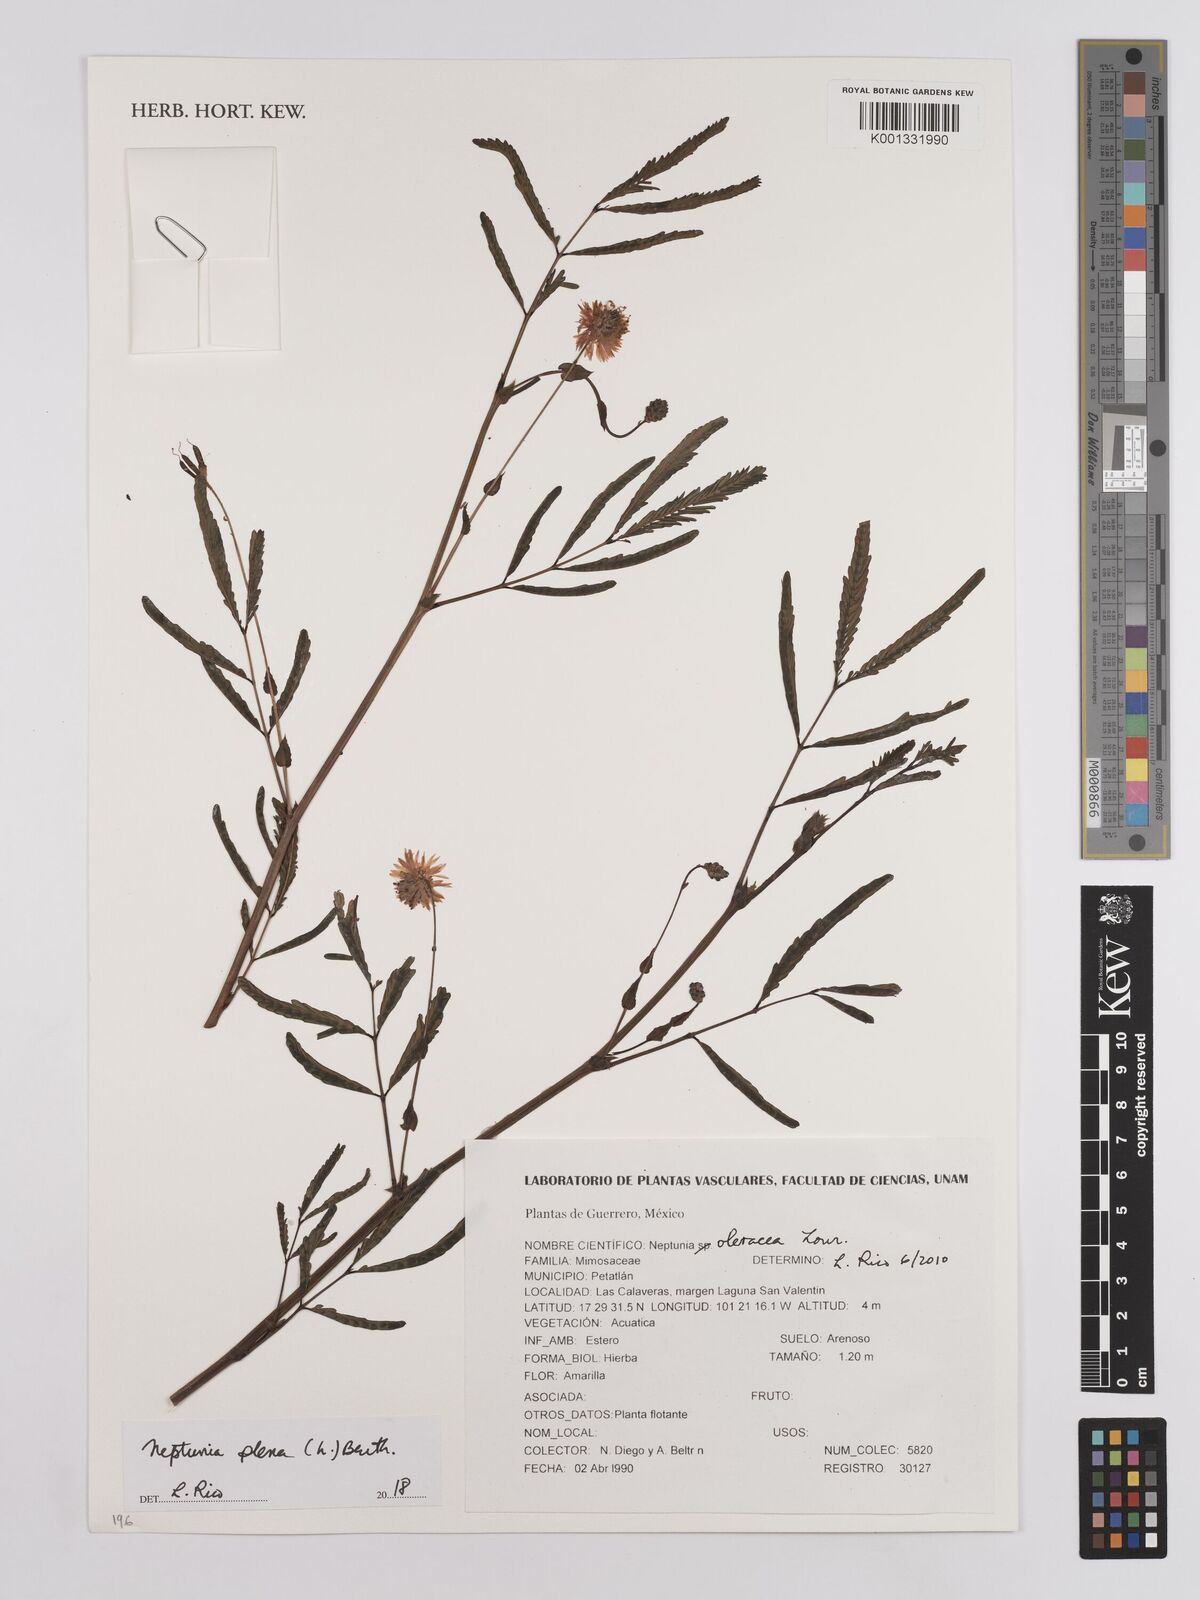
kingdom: Plantae
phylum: Tracheophyta
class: Magnoliopsida
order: Fabales
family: Fabaceae
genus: Neptunia
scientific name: Neptunia plena
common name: Dead and awake
